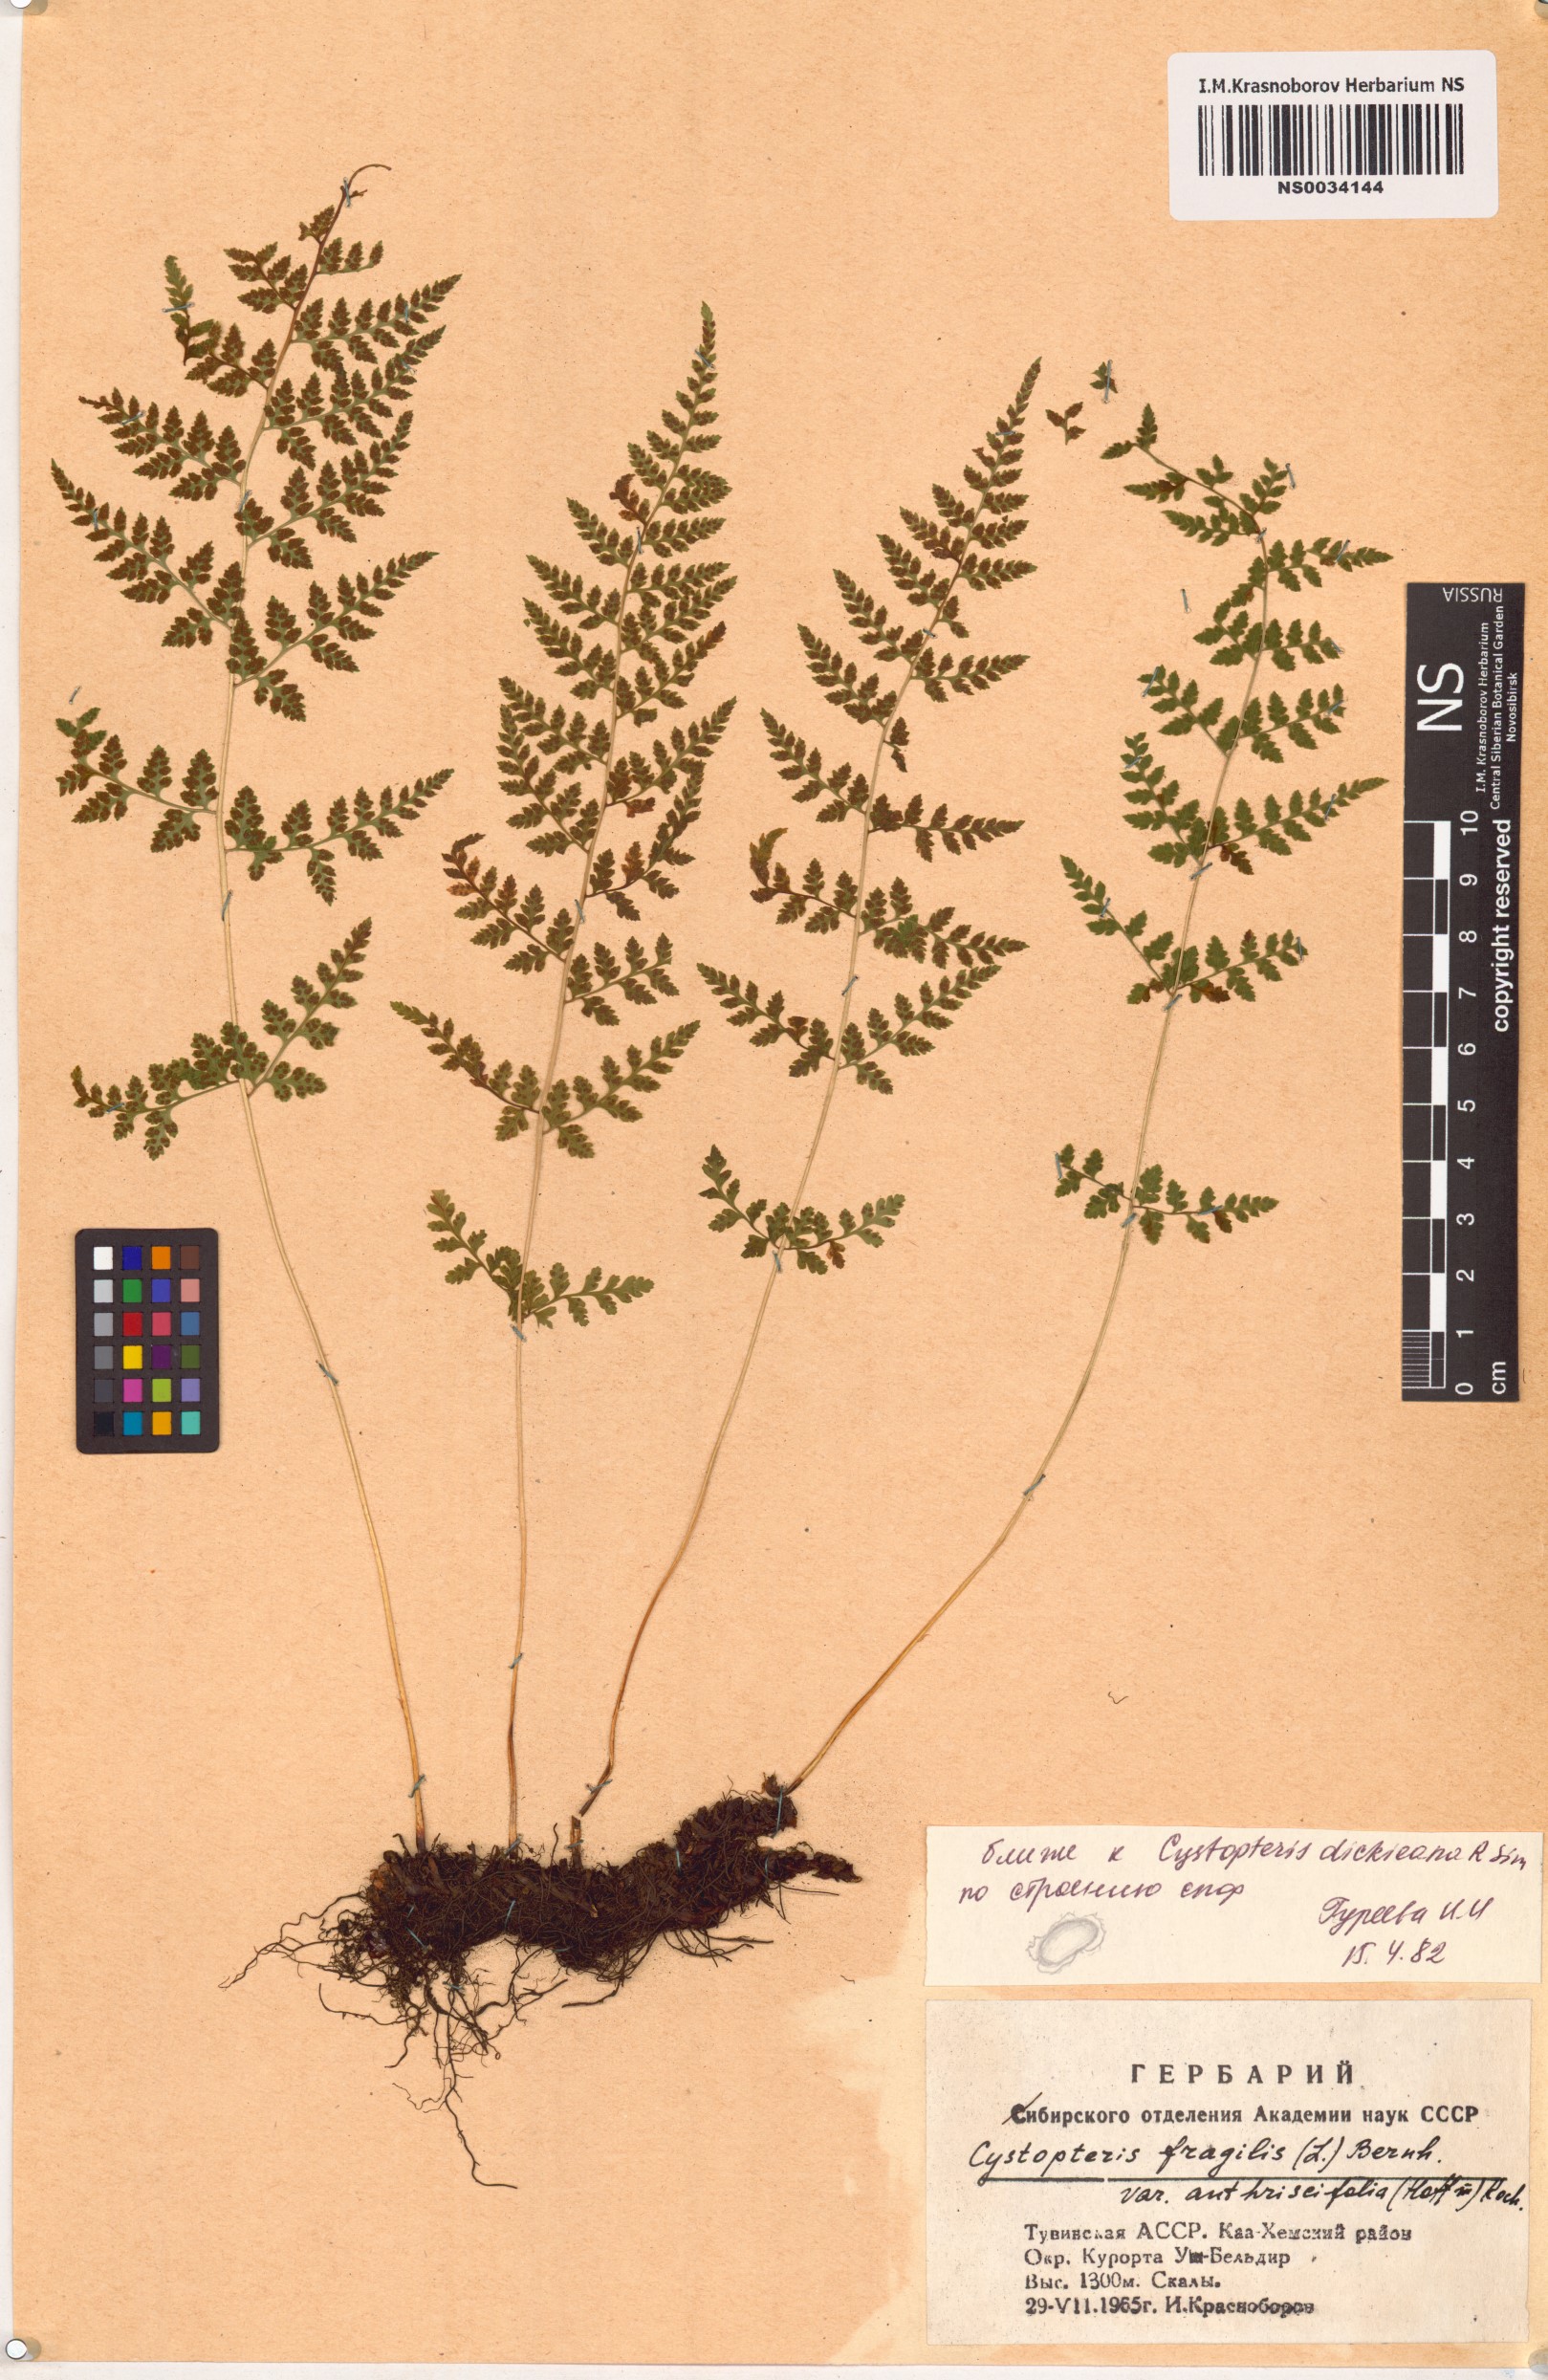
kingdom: Plantae
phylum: Tracheophyta
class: Polypodiopsida
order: Polypodiales
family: Cystopteridaceae
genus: Cystopteris
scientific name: Cystopteris dickieana
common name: Dickie's bladder-fern
